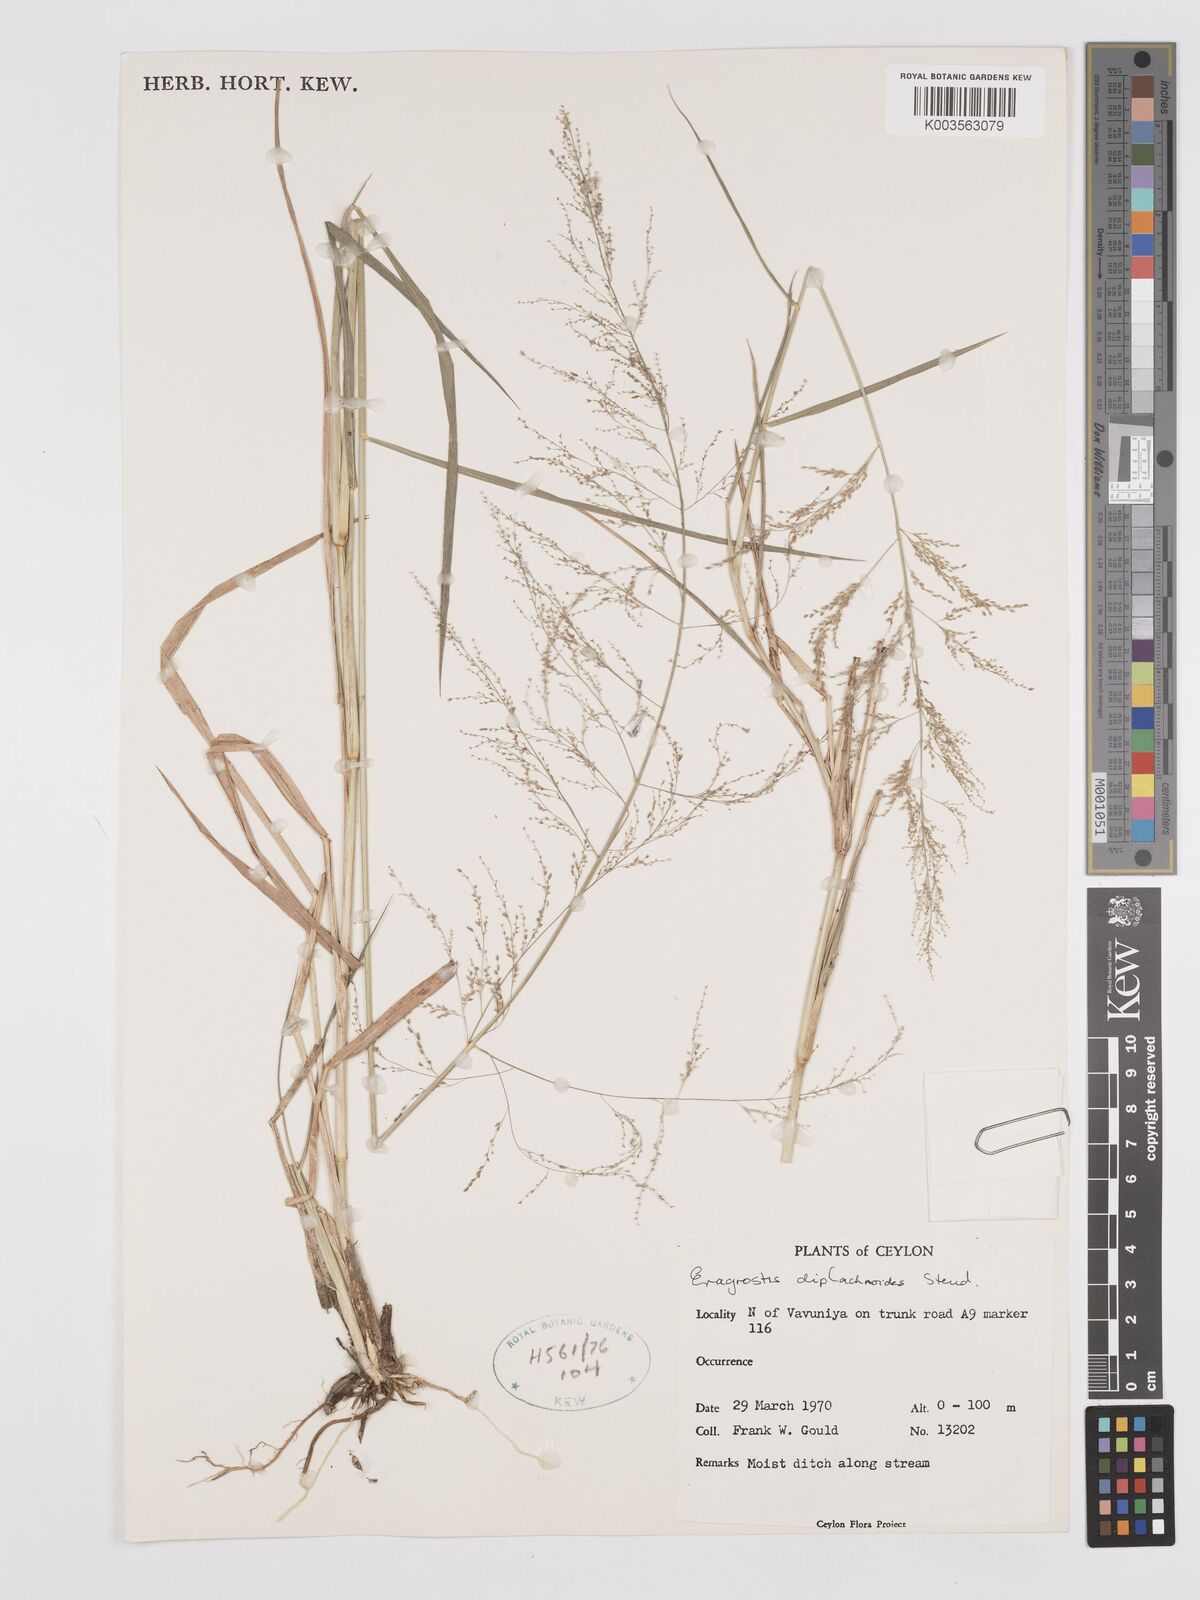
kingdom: Plantae
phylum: Tracheophyta
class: Liliopsida
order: Poales
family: Poaceae
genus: Eragrostis
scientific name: Eragrostis japonica
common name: Pond lovegrass
